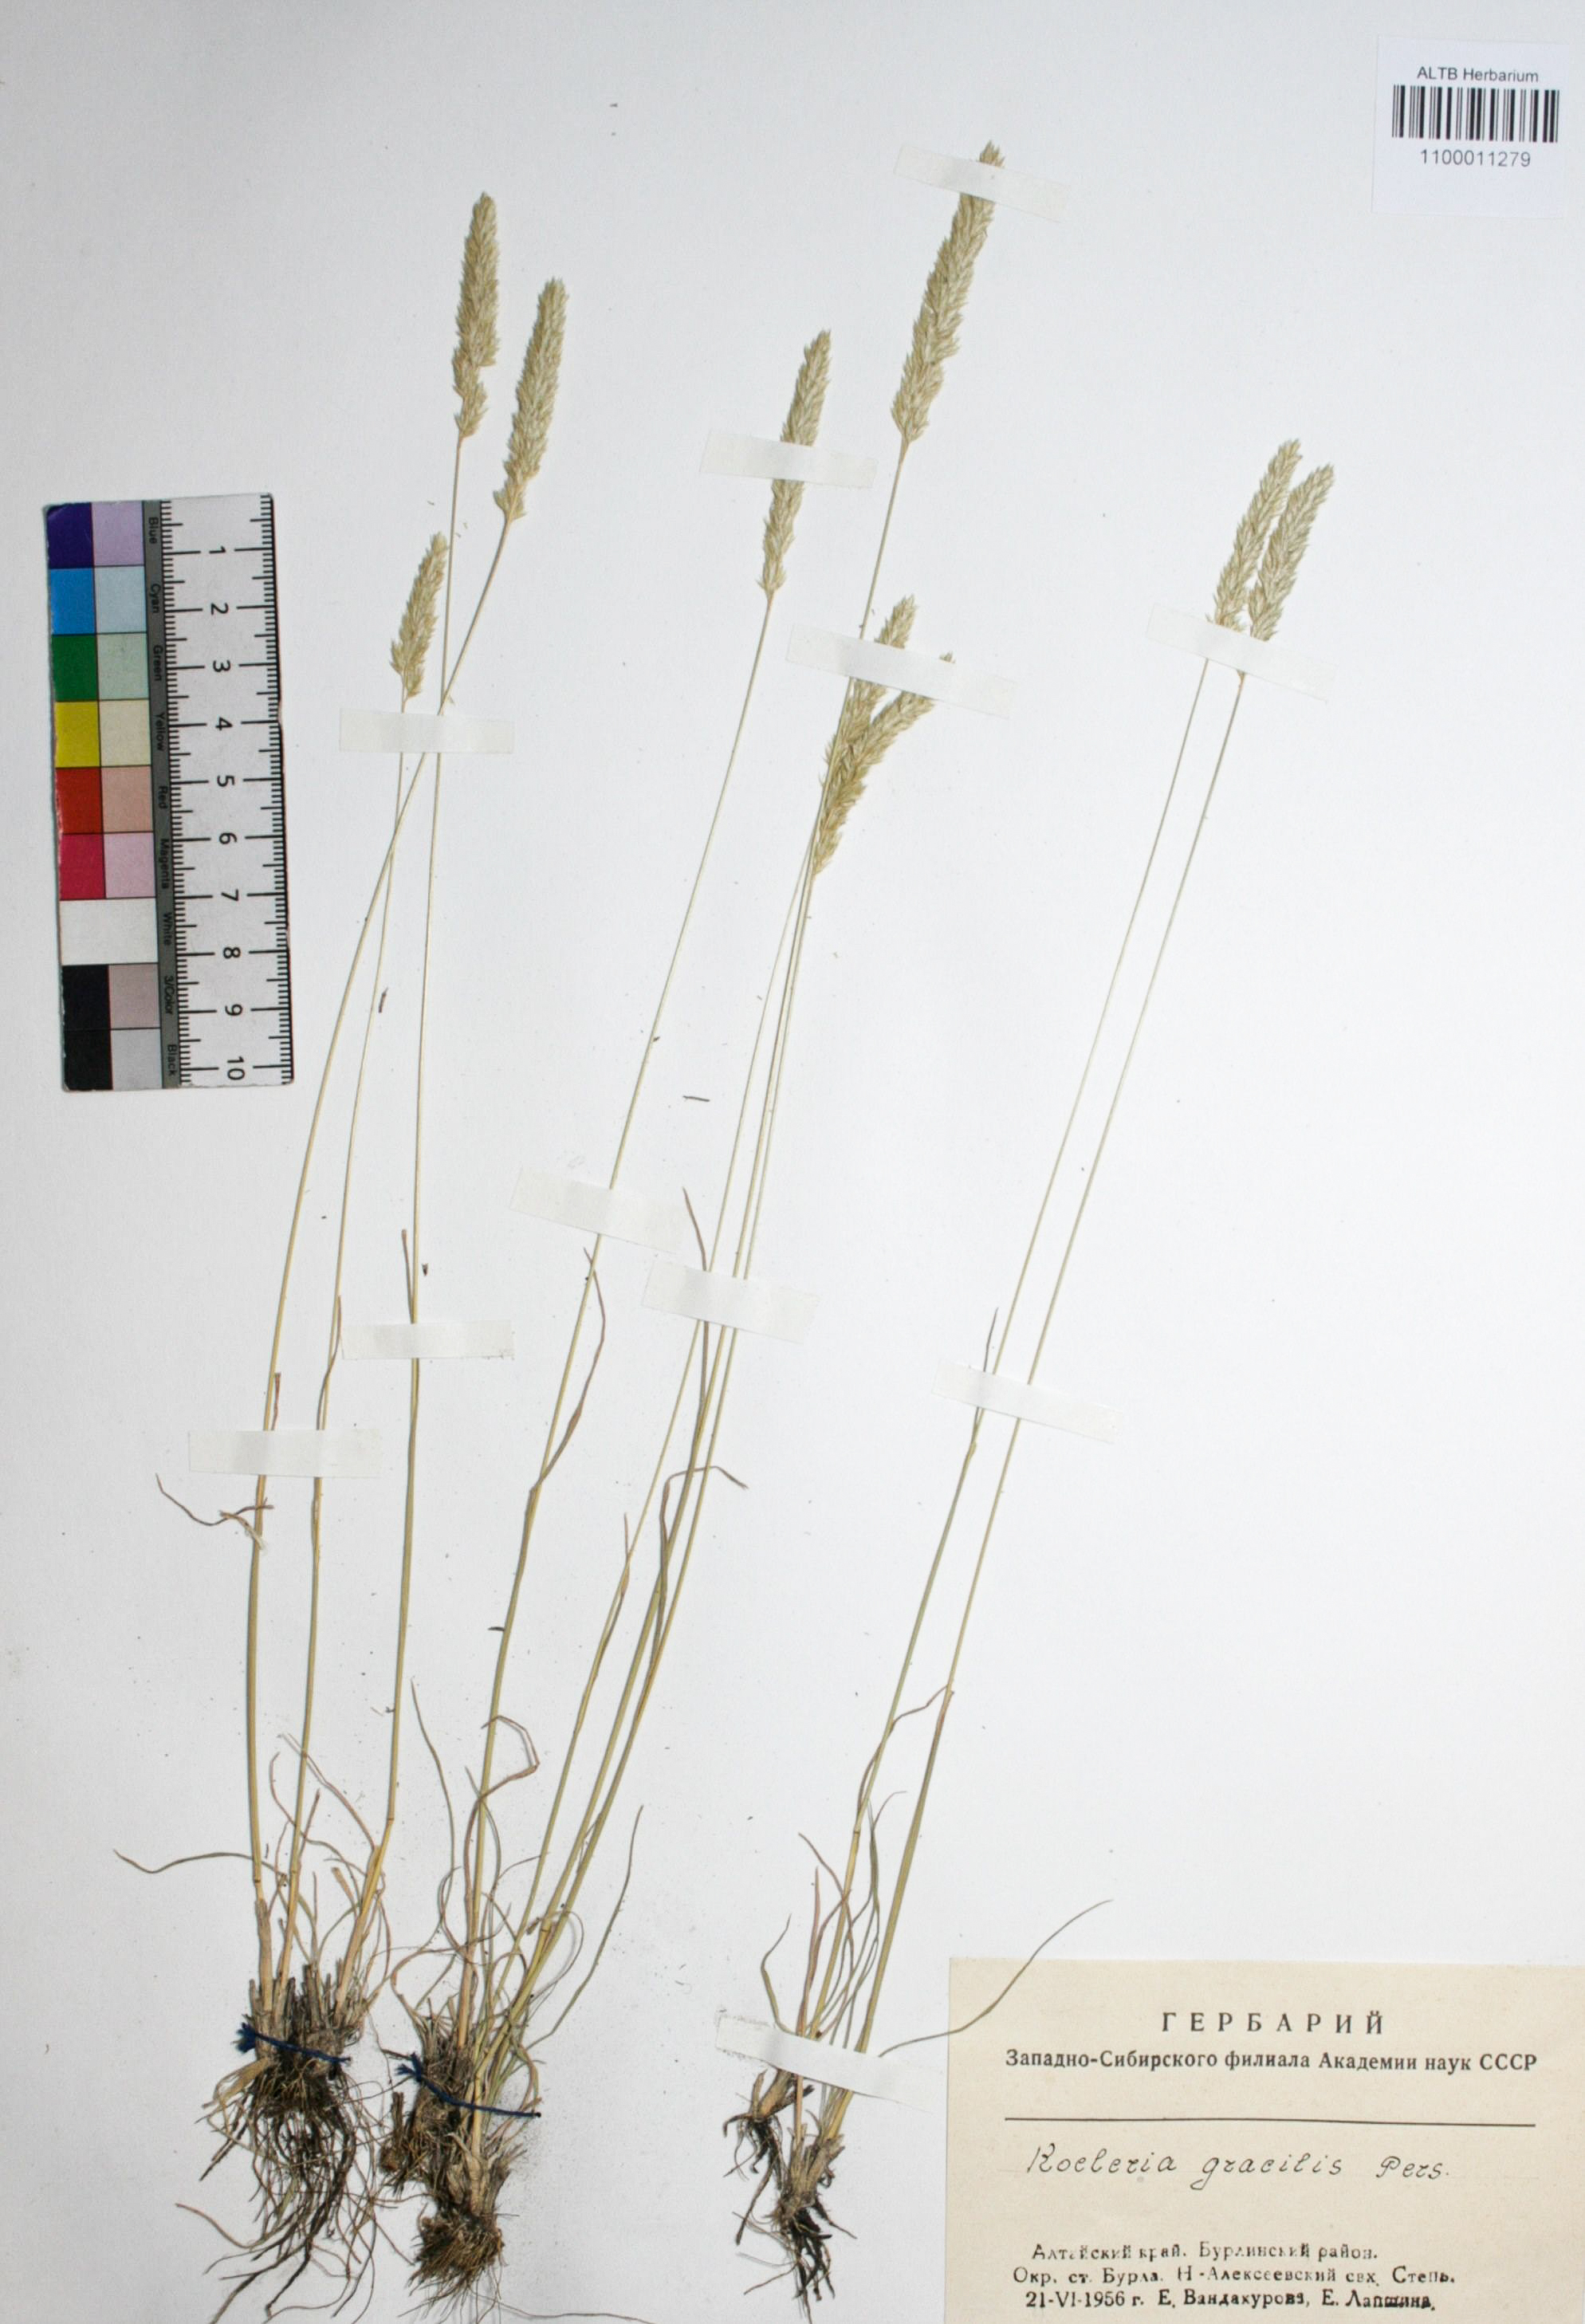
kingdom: Plantae
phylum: Tracheophyta
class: Liliopsida
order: Poales
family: Poaceae
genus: Koeleria
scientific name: Koeleria macrantha
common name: Crested hair-grass
